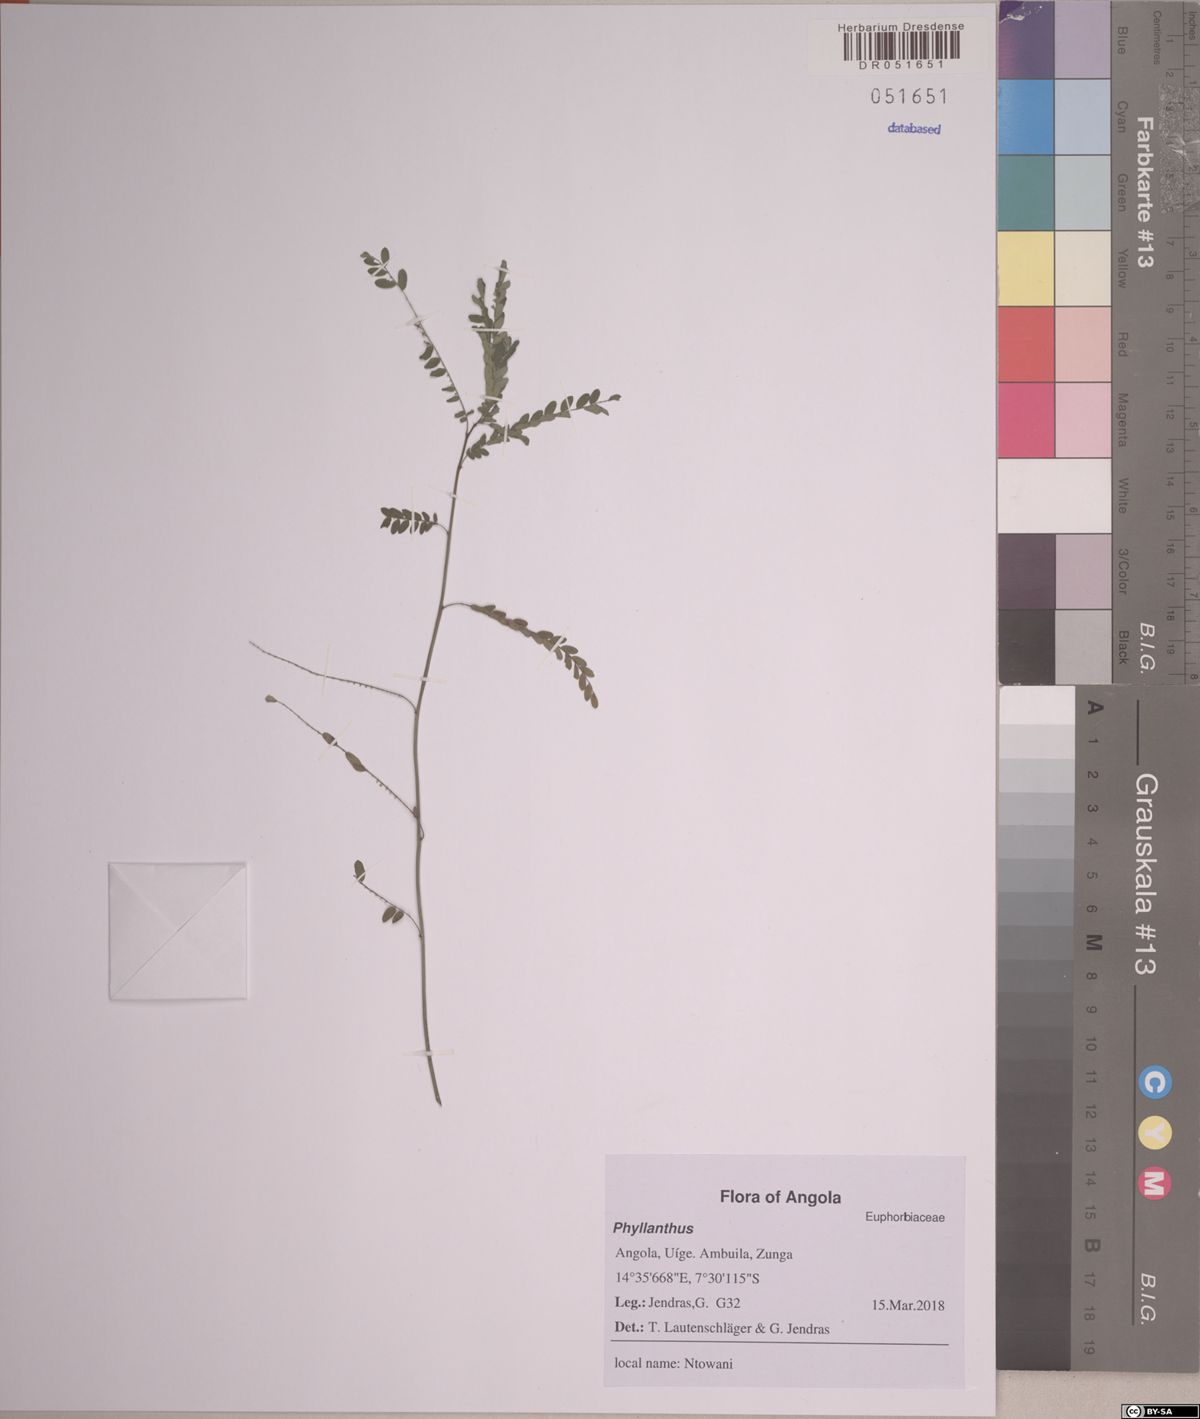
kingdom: Plantae
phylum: Tracheophyta
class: Magnoliopsida
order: Malpighiales
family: Phyllanthaceae
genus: Phyllanthus
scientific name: Phyllanthus
